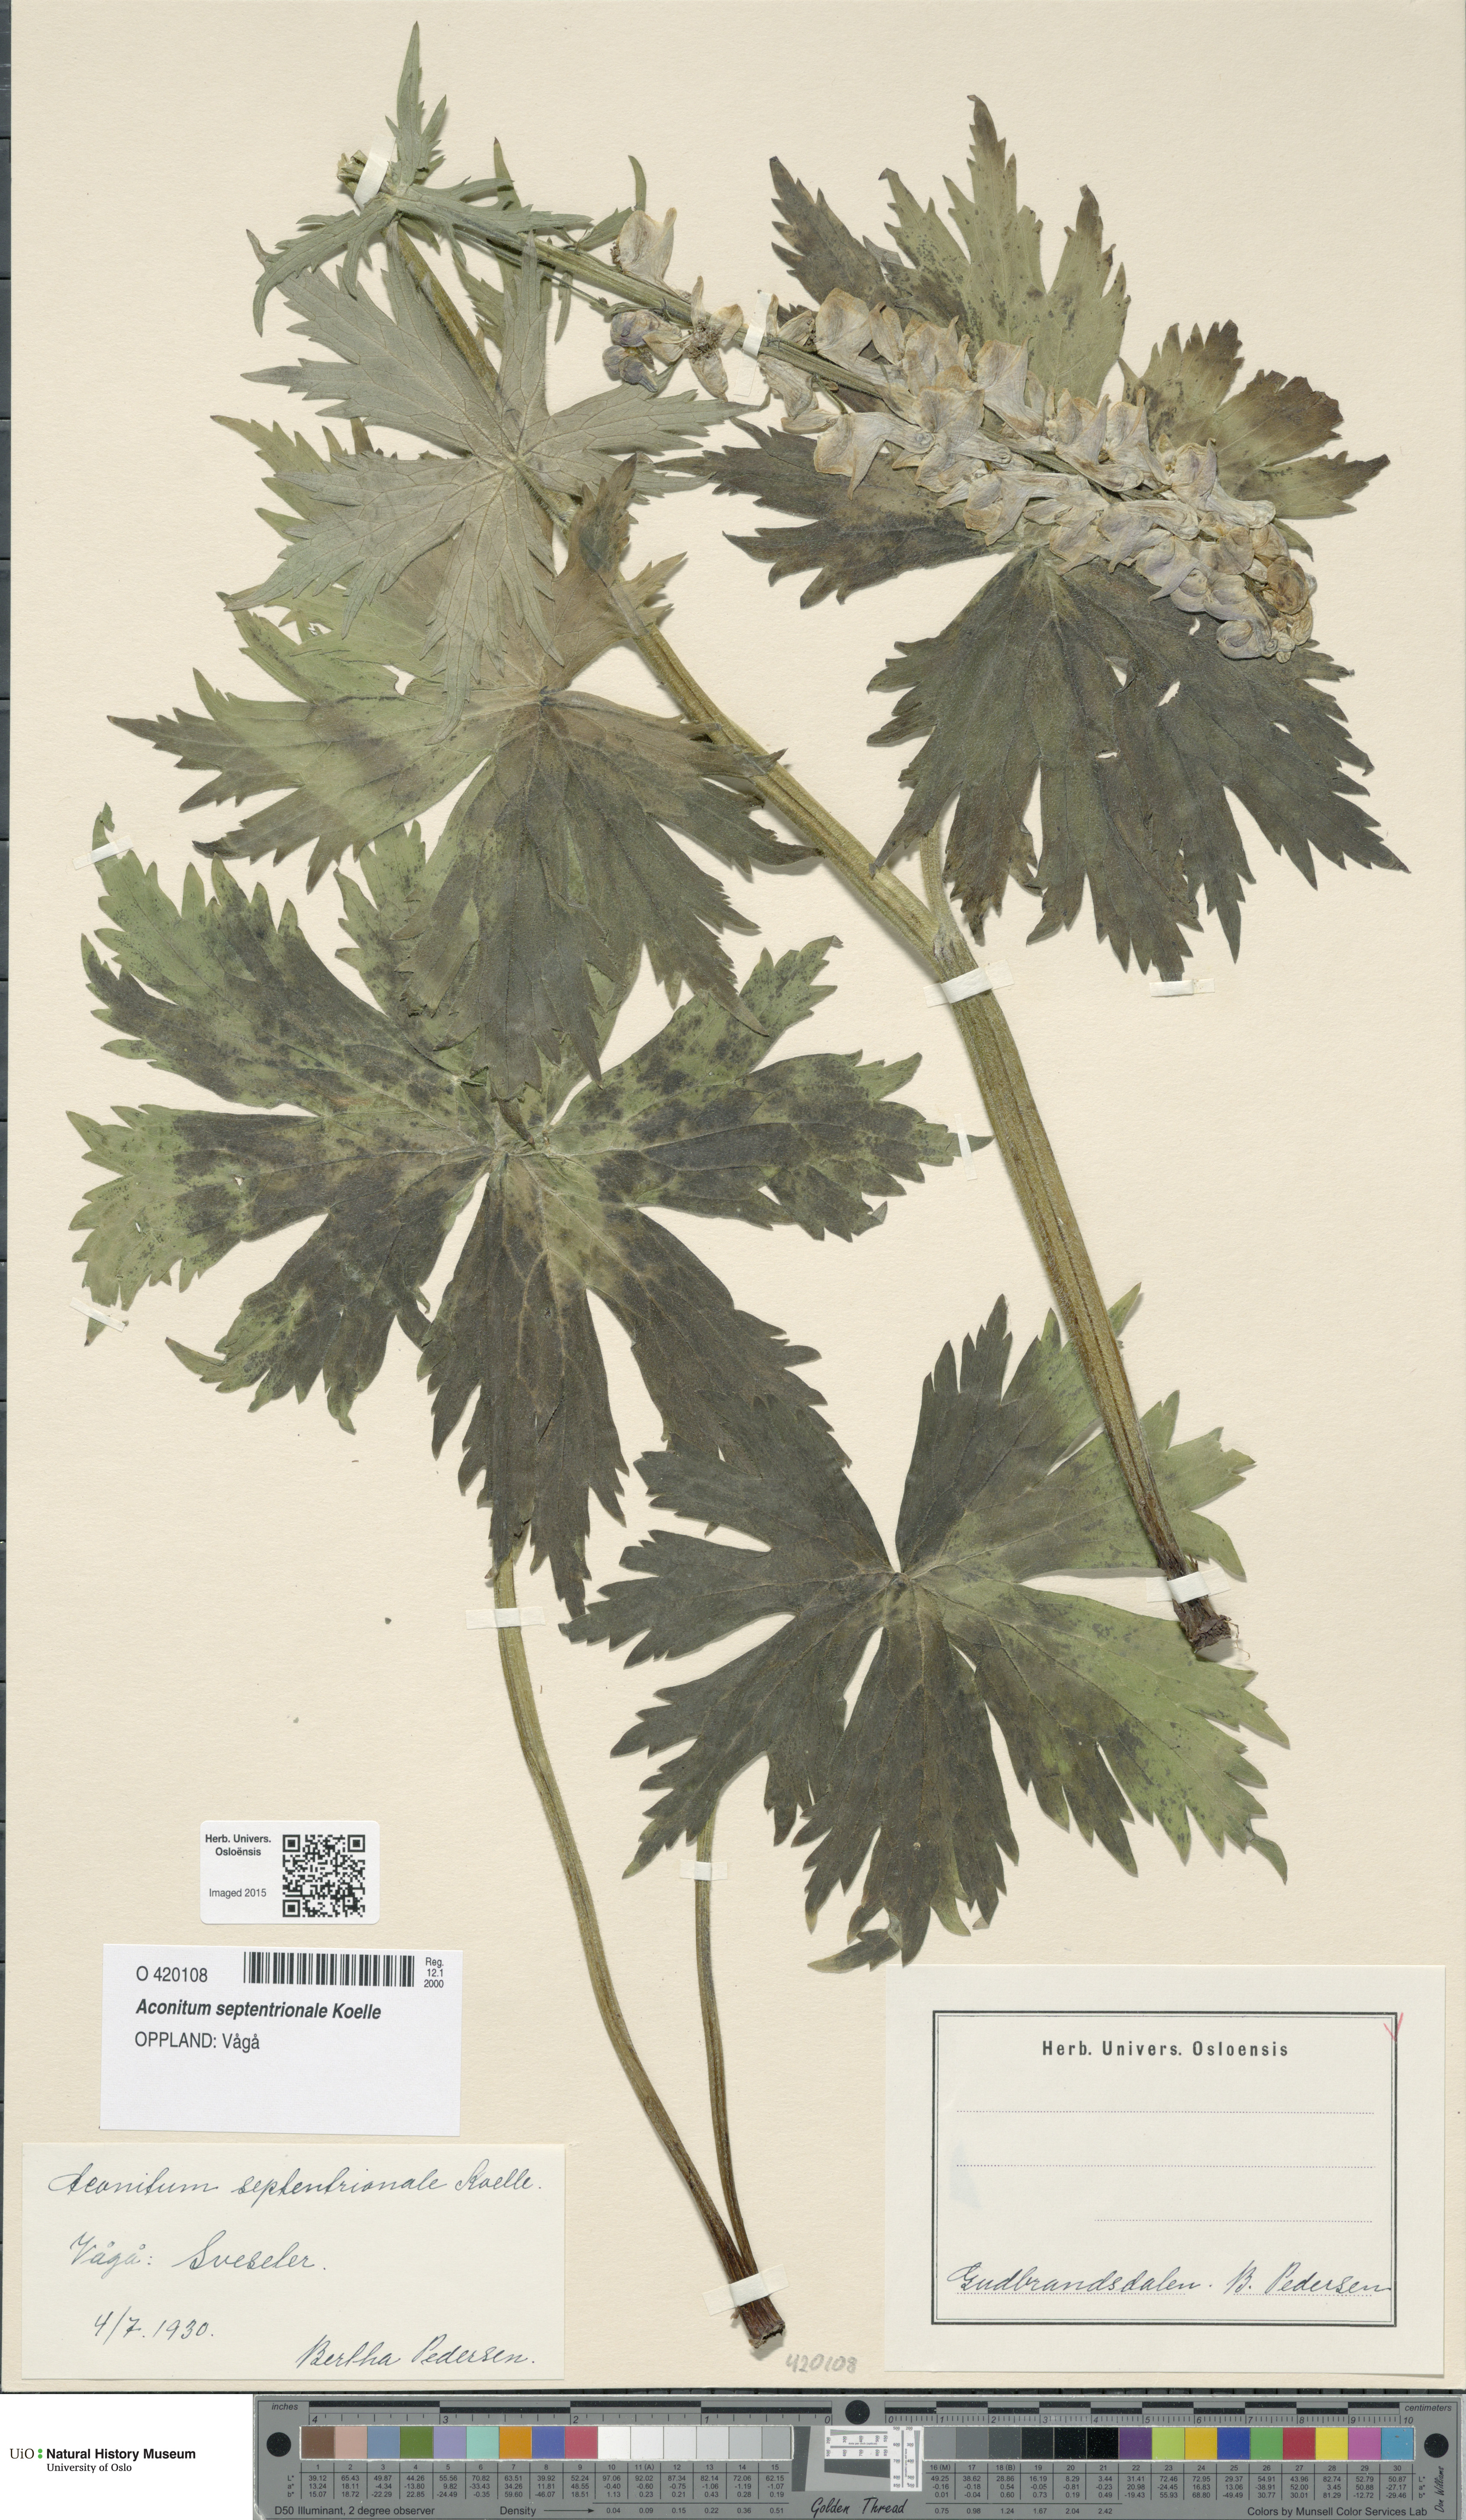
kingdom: Plantae
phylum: Tracheophyta
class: Magnoliopsida
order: Ranunculales
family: Ranunculaceae
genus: Aconitum
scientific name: Aconitum septentrionale
